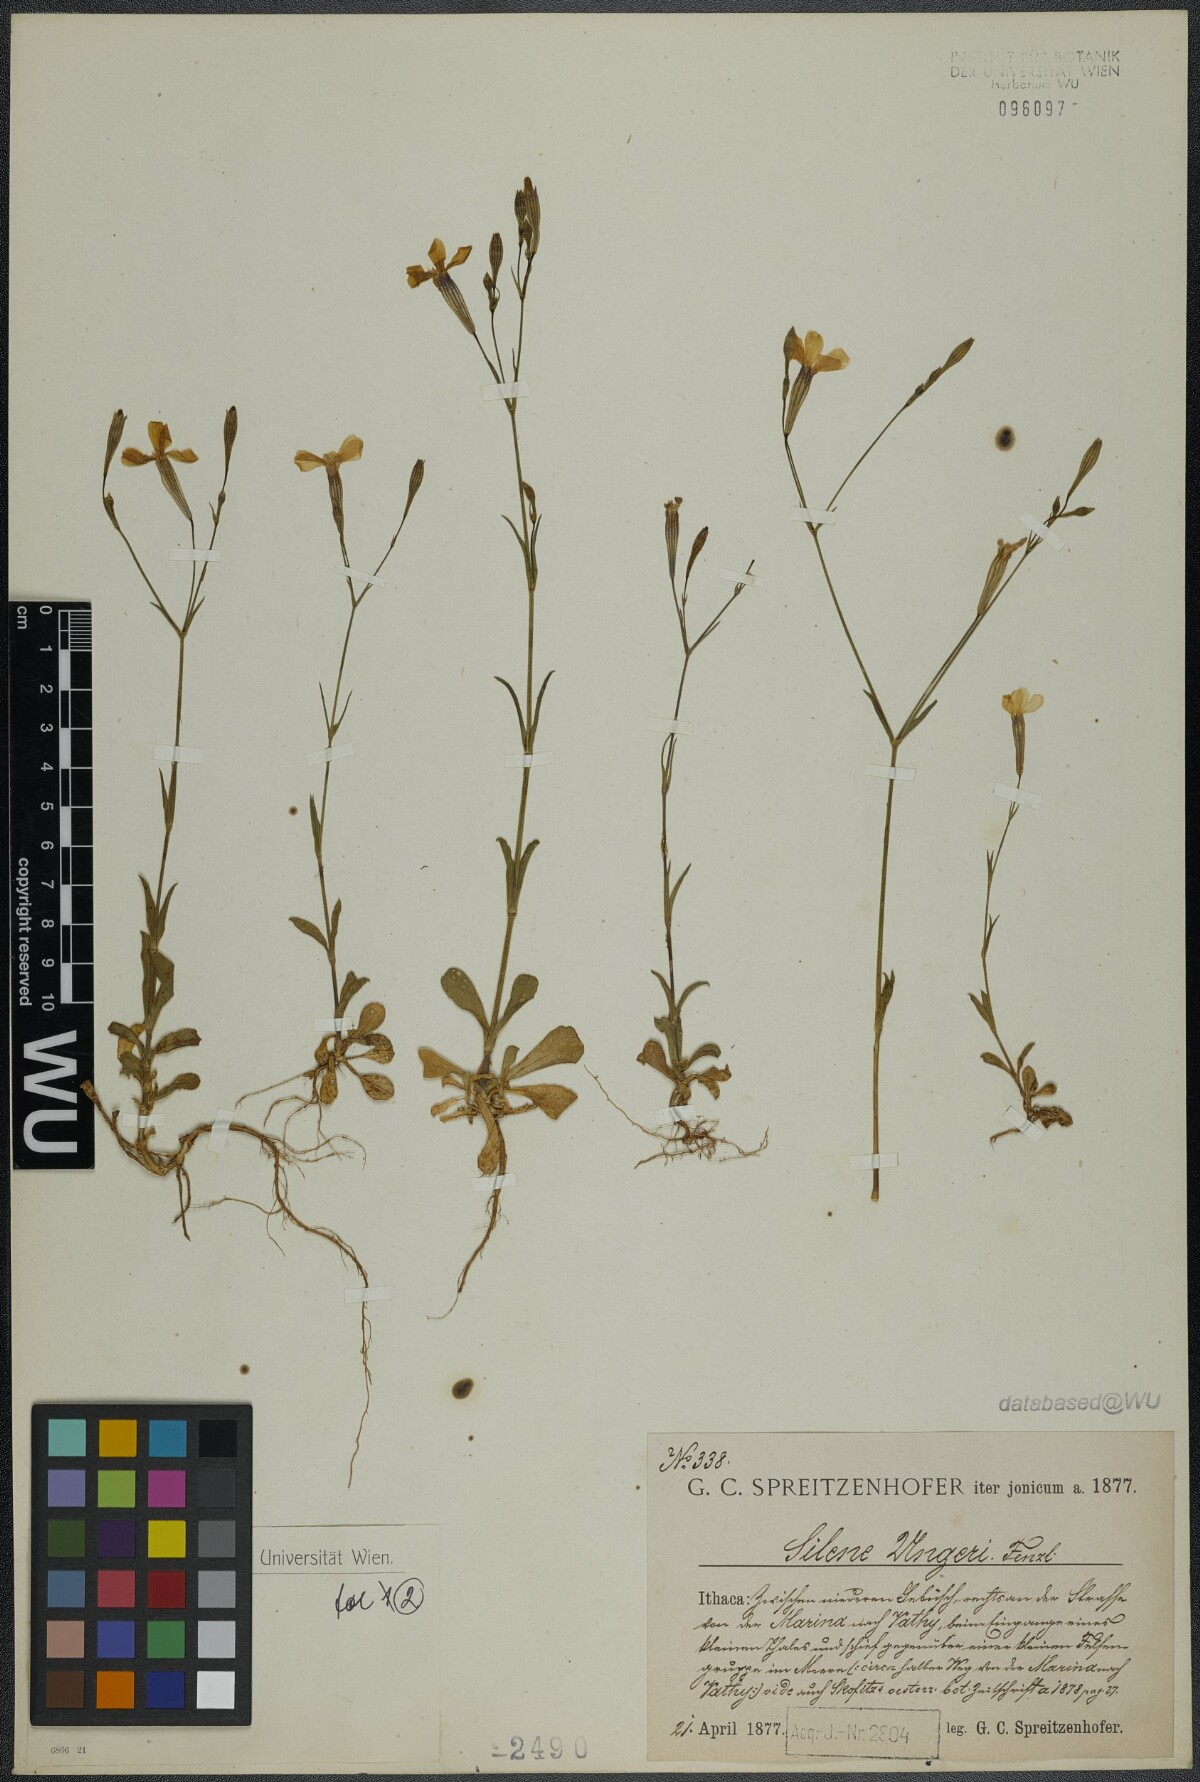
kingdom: Plantae
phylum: Tracheophyta
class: Magnoliopsida
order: Caryophyllales
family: Caryophyllaceae
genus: Silene
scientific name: Silene ungeri
